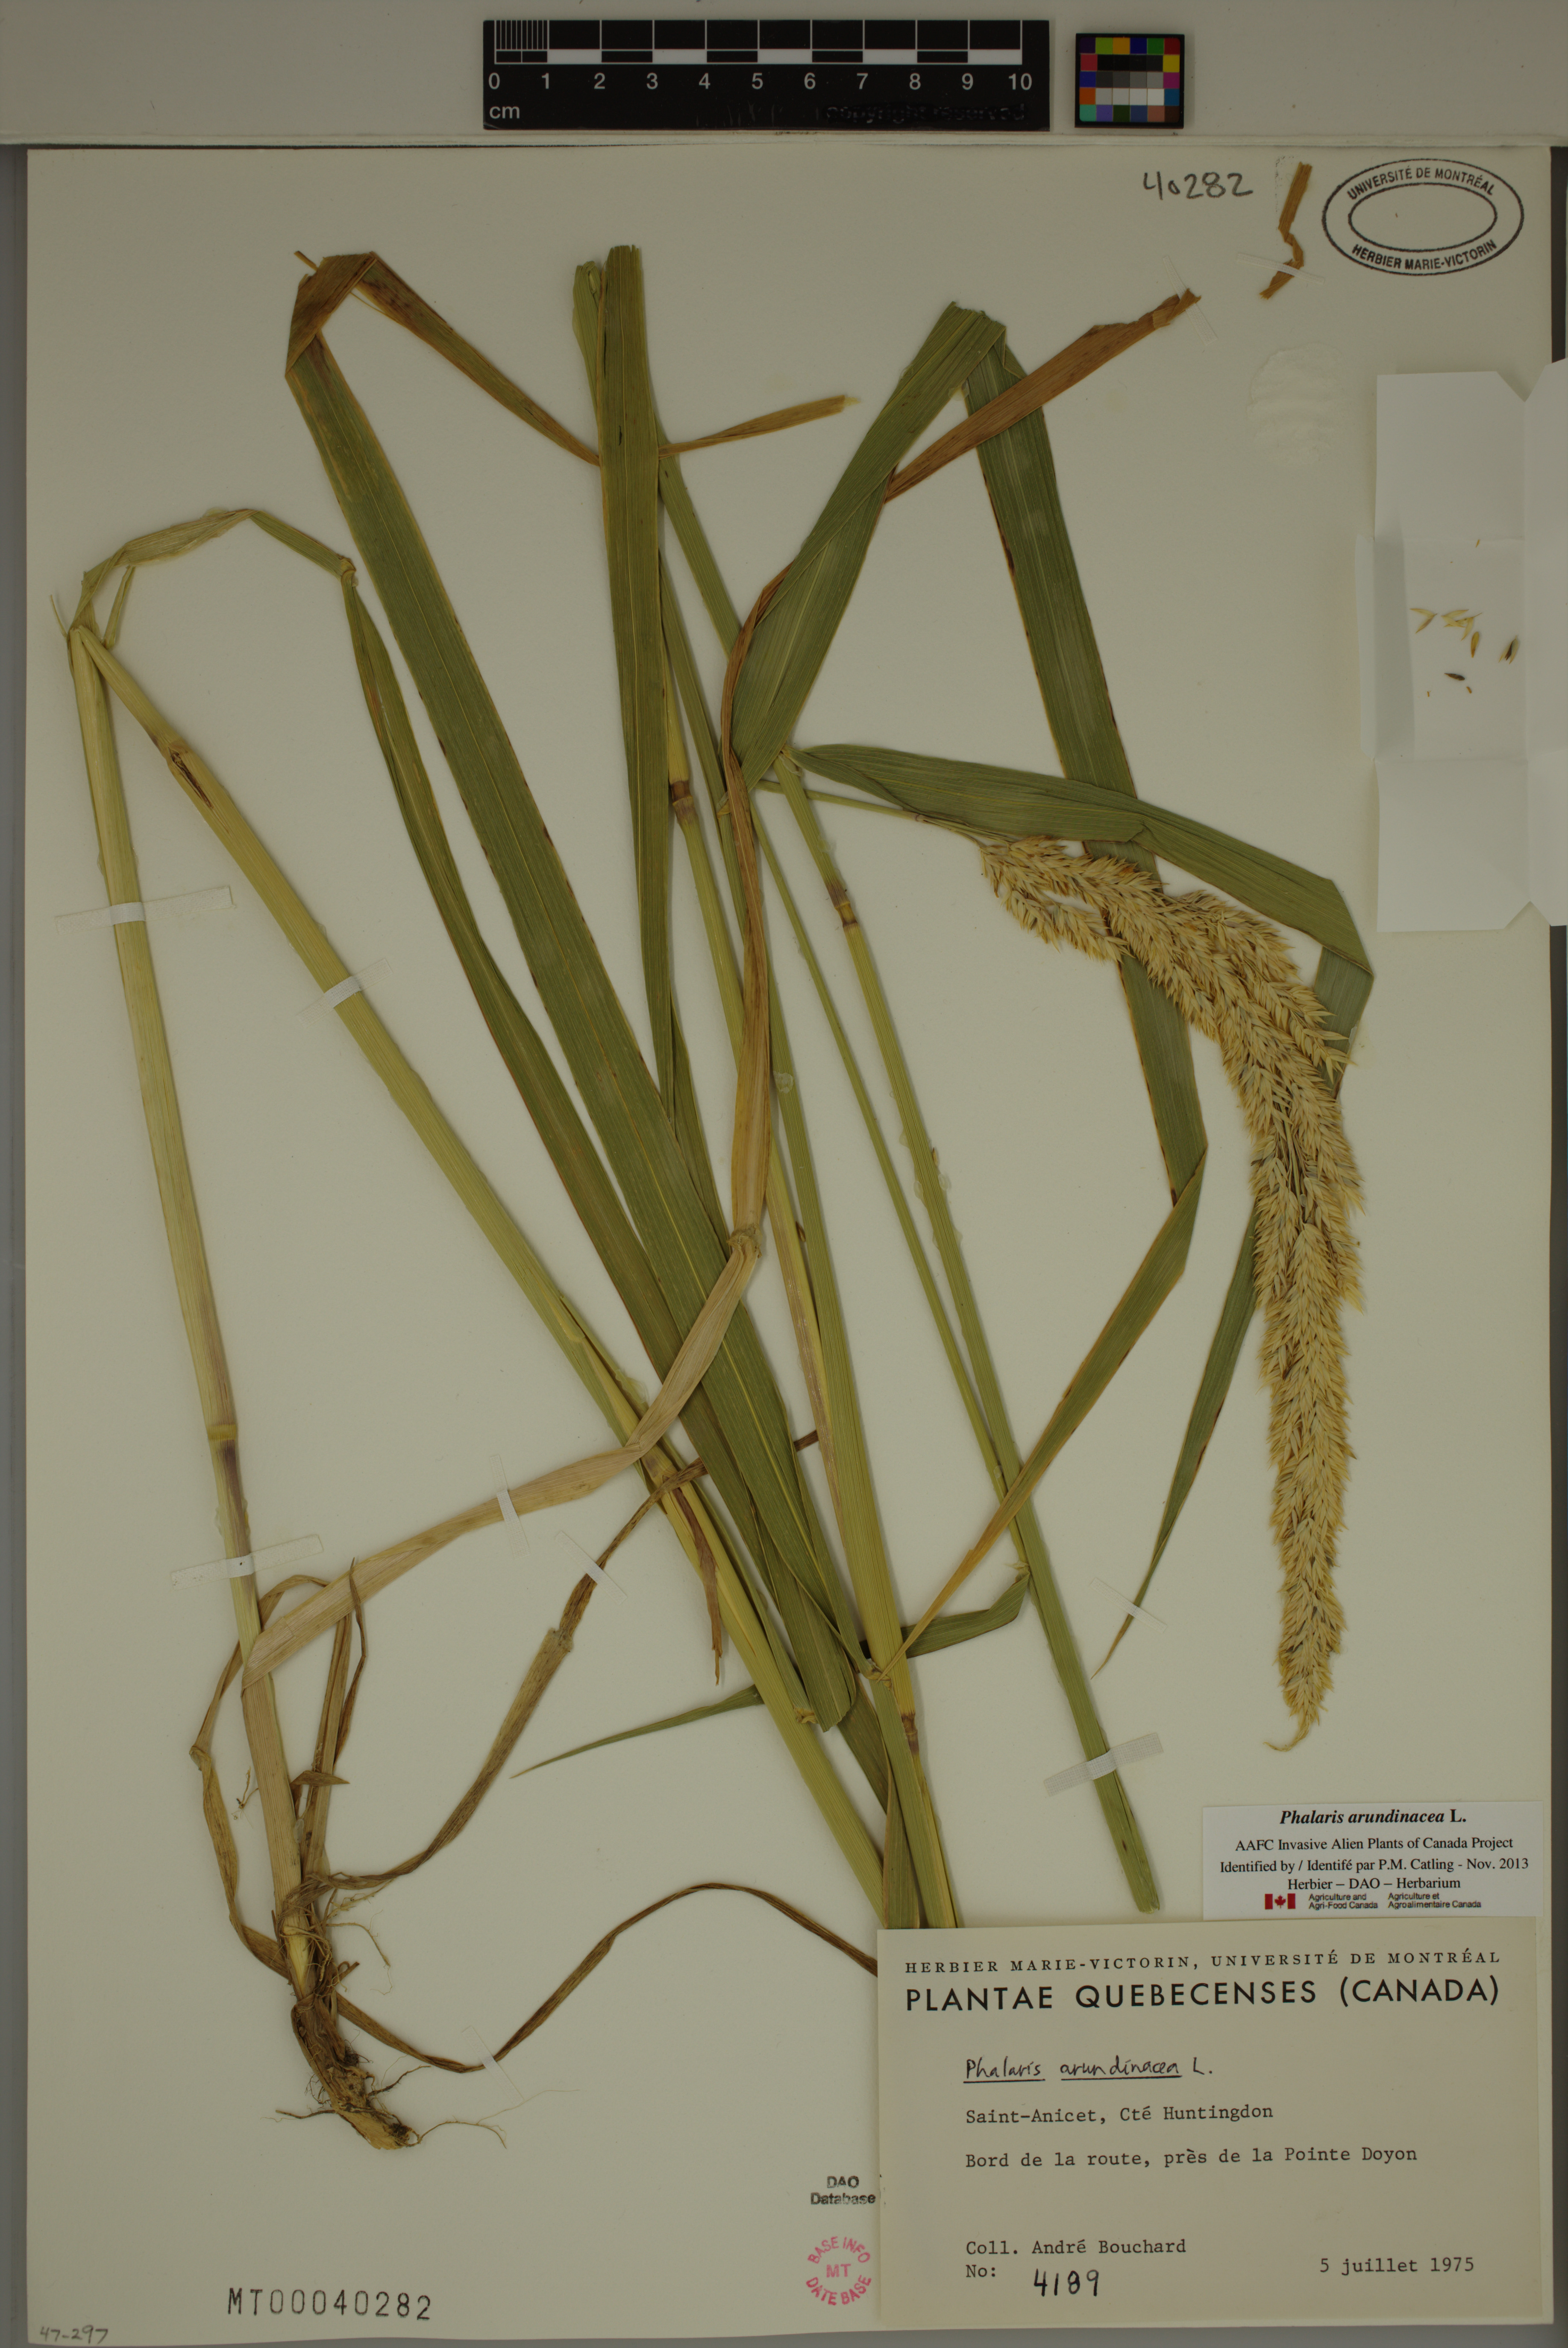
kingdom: Plantae
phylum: Tracheophyta
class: Liliopsida
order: Poales
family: Poaceae
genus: Phalaris
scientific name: Phalaris arundinacea
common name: Reed canary-grass
